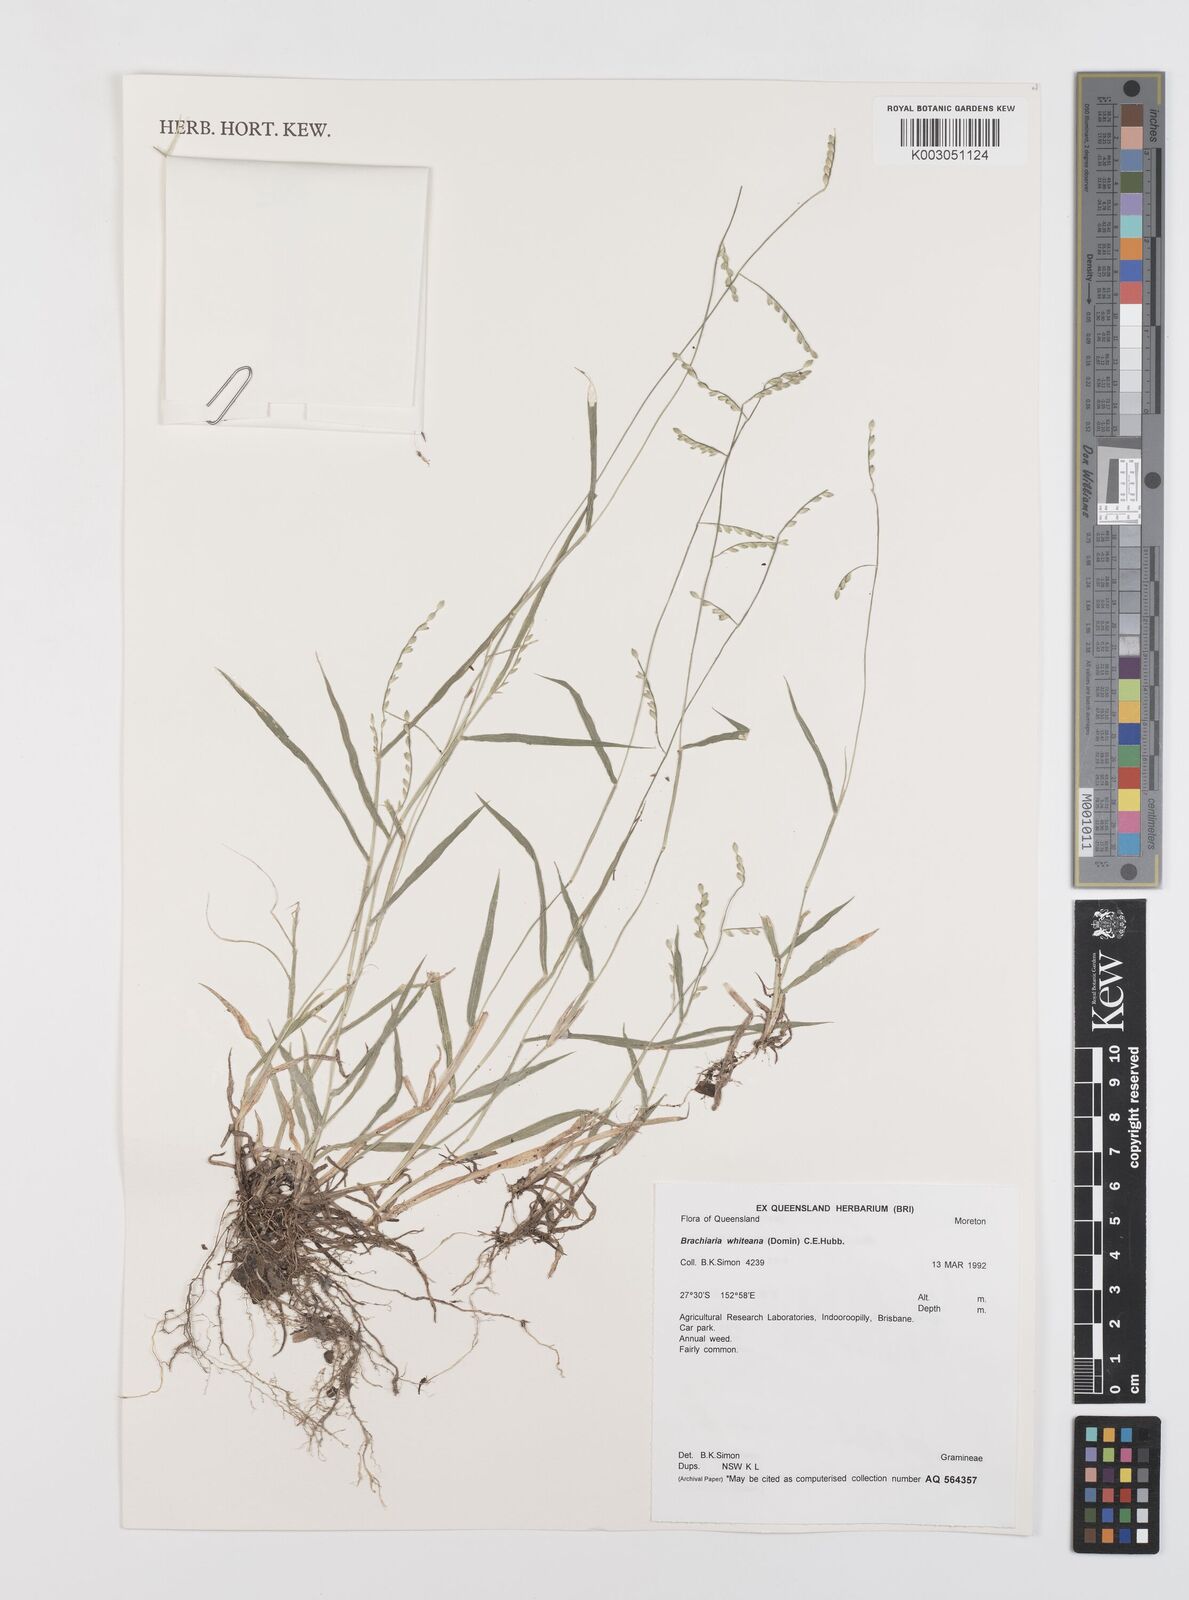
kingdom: Plantae
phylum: Tracheophyta
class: Liliopsida
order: Poales
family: Poaceae
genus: Urochloa
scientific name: Urochloa whiteana
